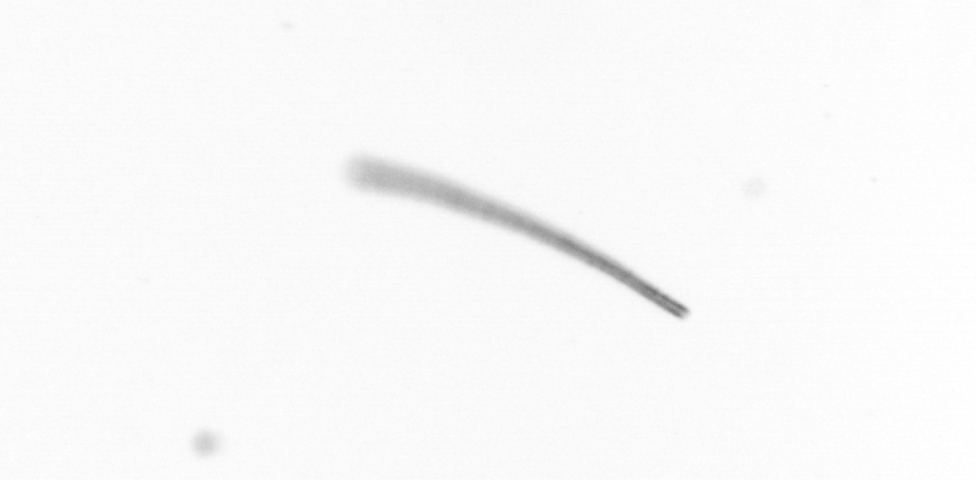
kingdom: Chromista
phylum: Ochrophyta
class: Bacillariophyceae
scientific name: Bacillariophyceae
